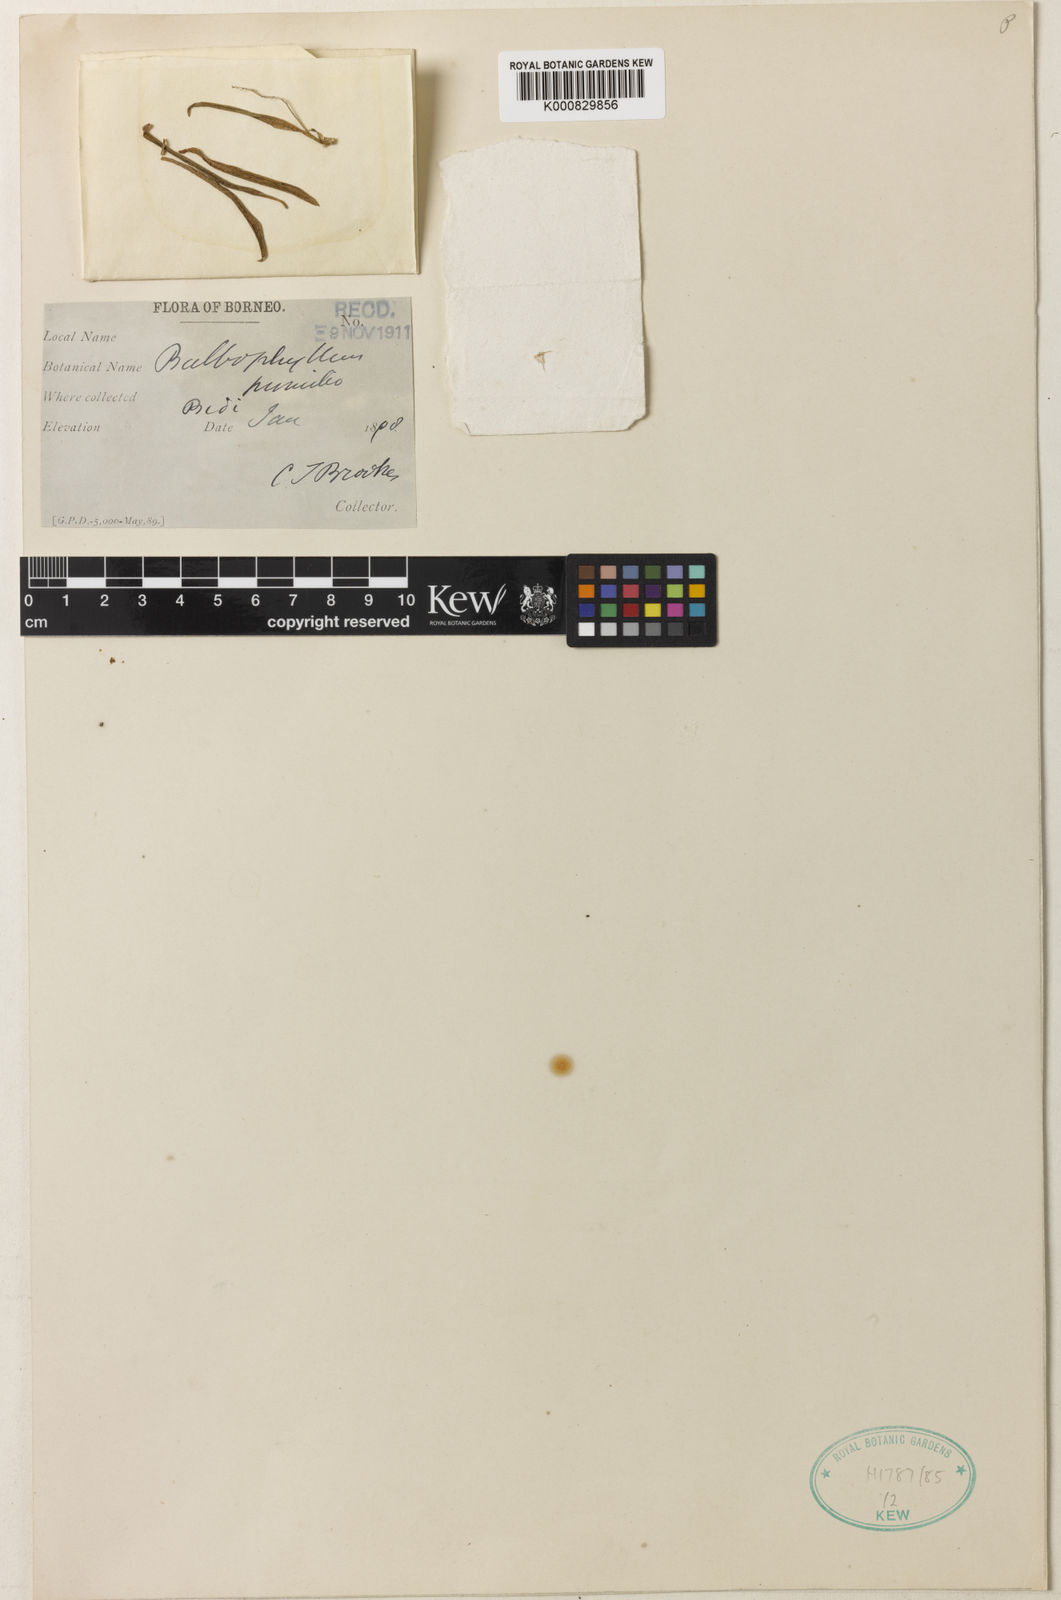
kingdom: Plantae
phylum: Tracheophyta
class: Liliopsida
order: Asparagales
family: Orchidaceae
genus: Bulbophyllum
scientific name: Bulbophyllum unguiculatum
